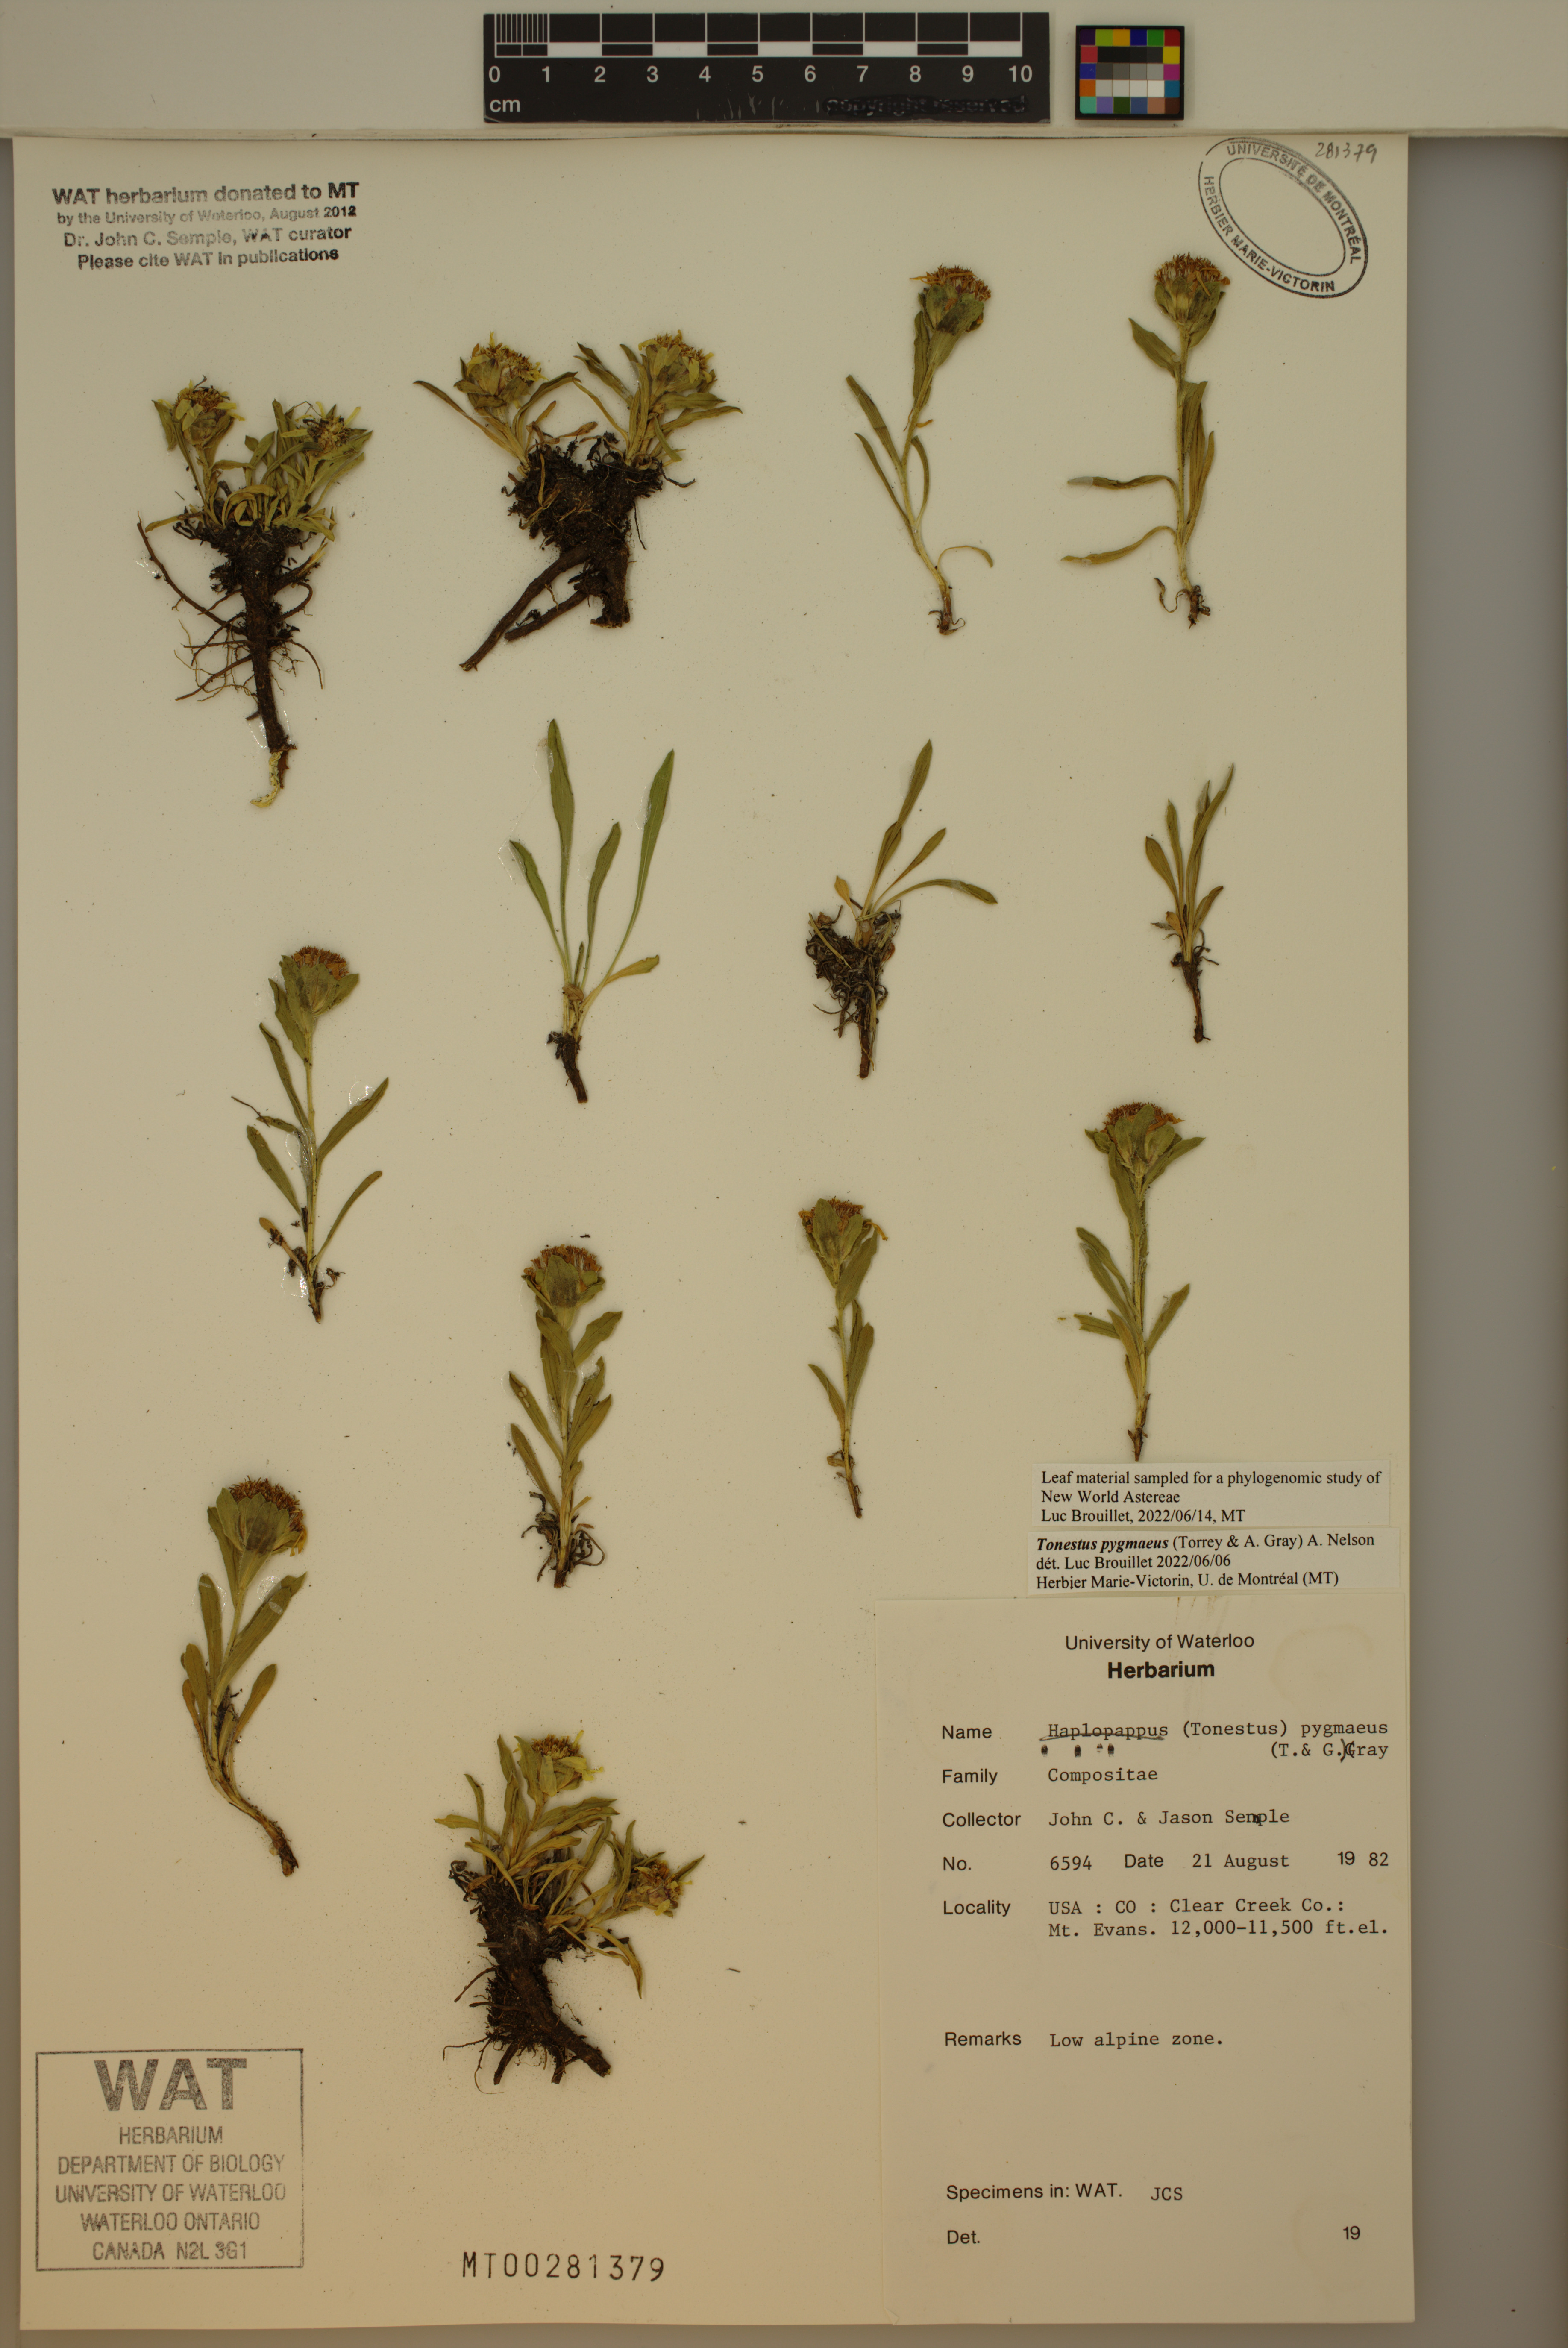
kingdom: Plantae
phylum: Tracheophyta
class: Magnoliopsida
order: Asterales
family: Asteraceae
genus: Tonestus
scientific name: Tonestus pygmaeus
